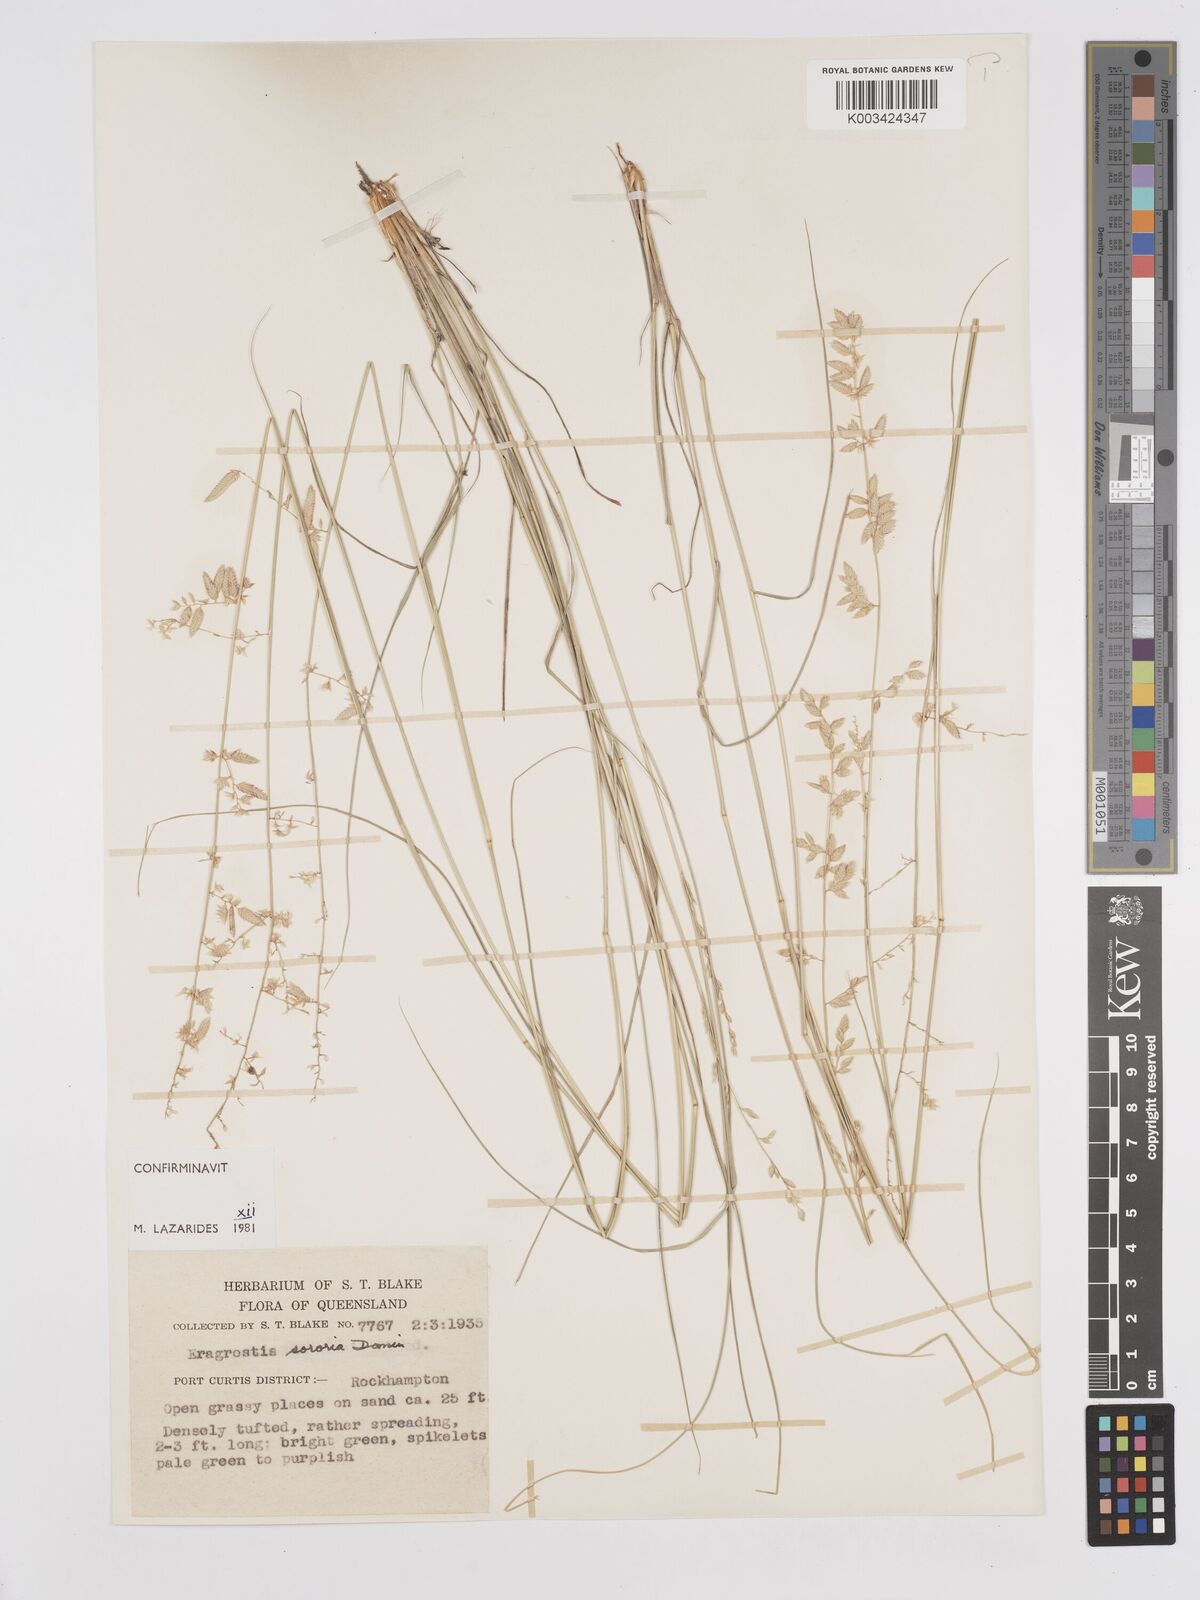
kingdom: Plantae
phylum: Tracheophyta
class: Liliopsida
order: Poales
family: Poaceae
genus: Eragrostis
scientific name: Eragrostis sororia
